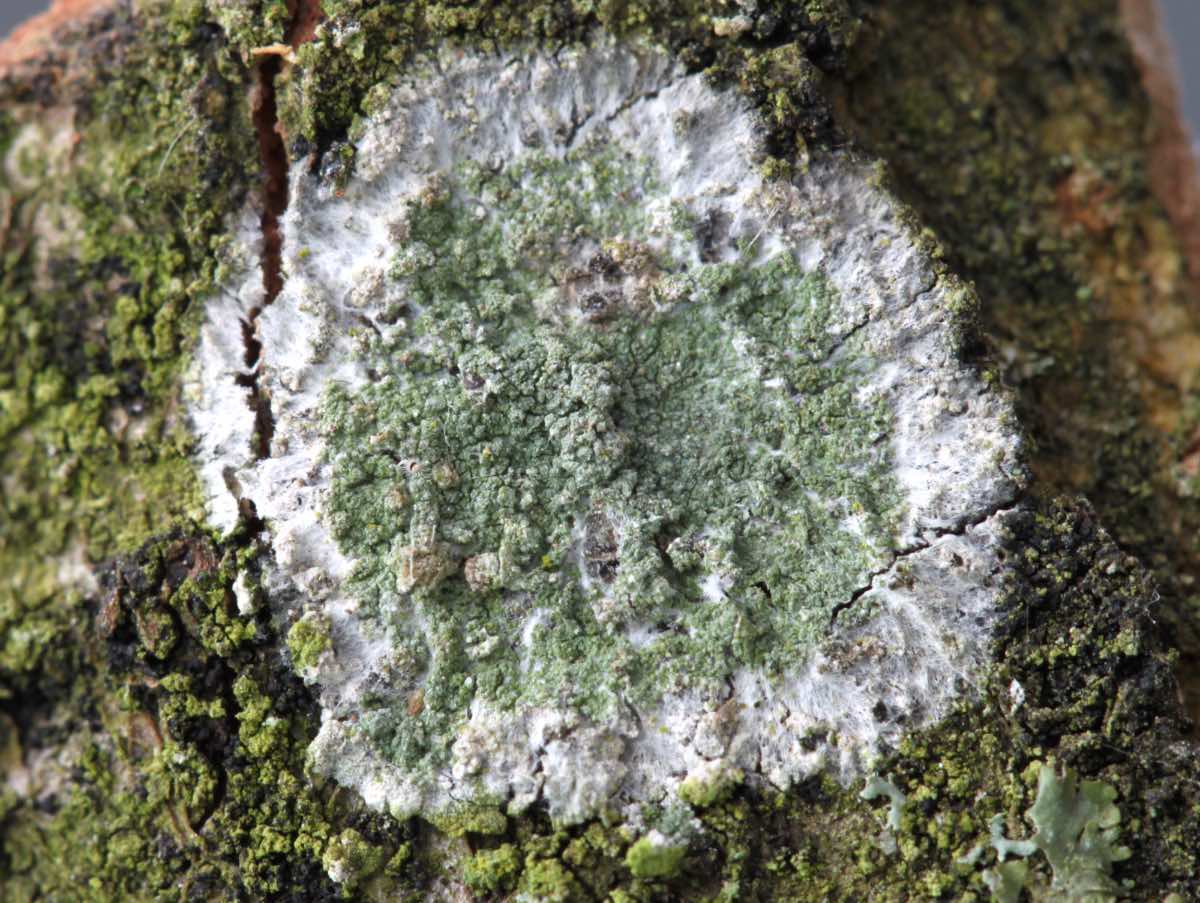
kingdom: Fungi
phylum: Ascomycota
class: Lecanoromycetes
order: Lecanorales
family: Haematommataceae
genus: Haematomma
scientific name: Haematomma ochroleucum
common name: gul trådkantlav
